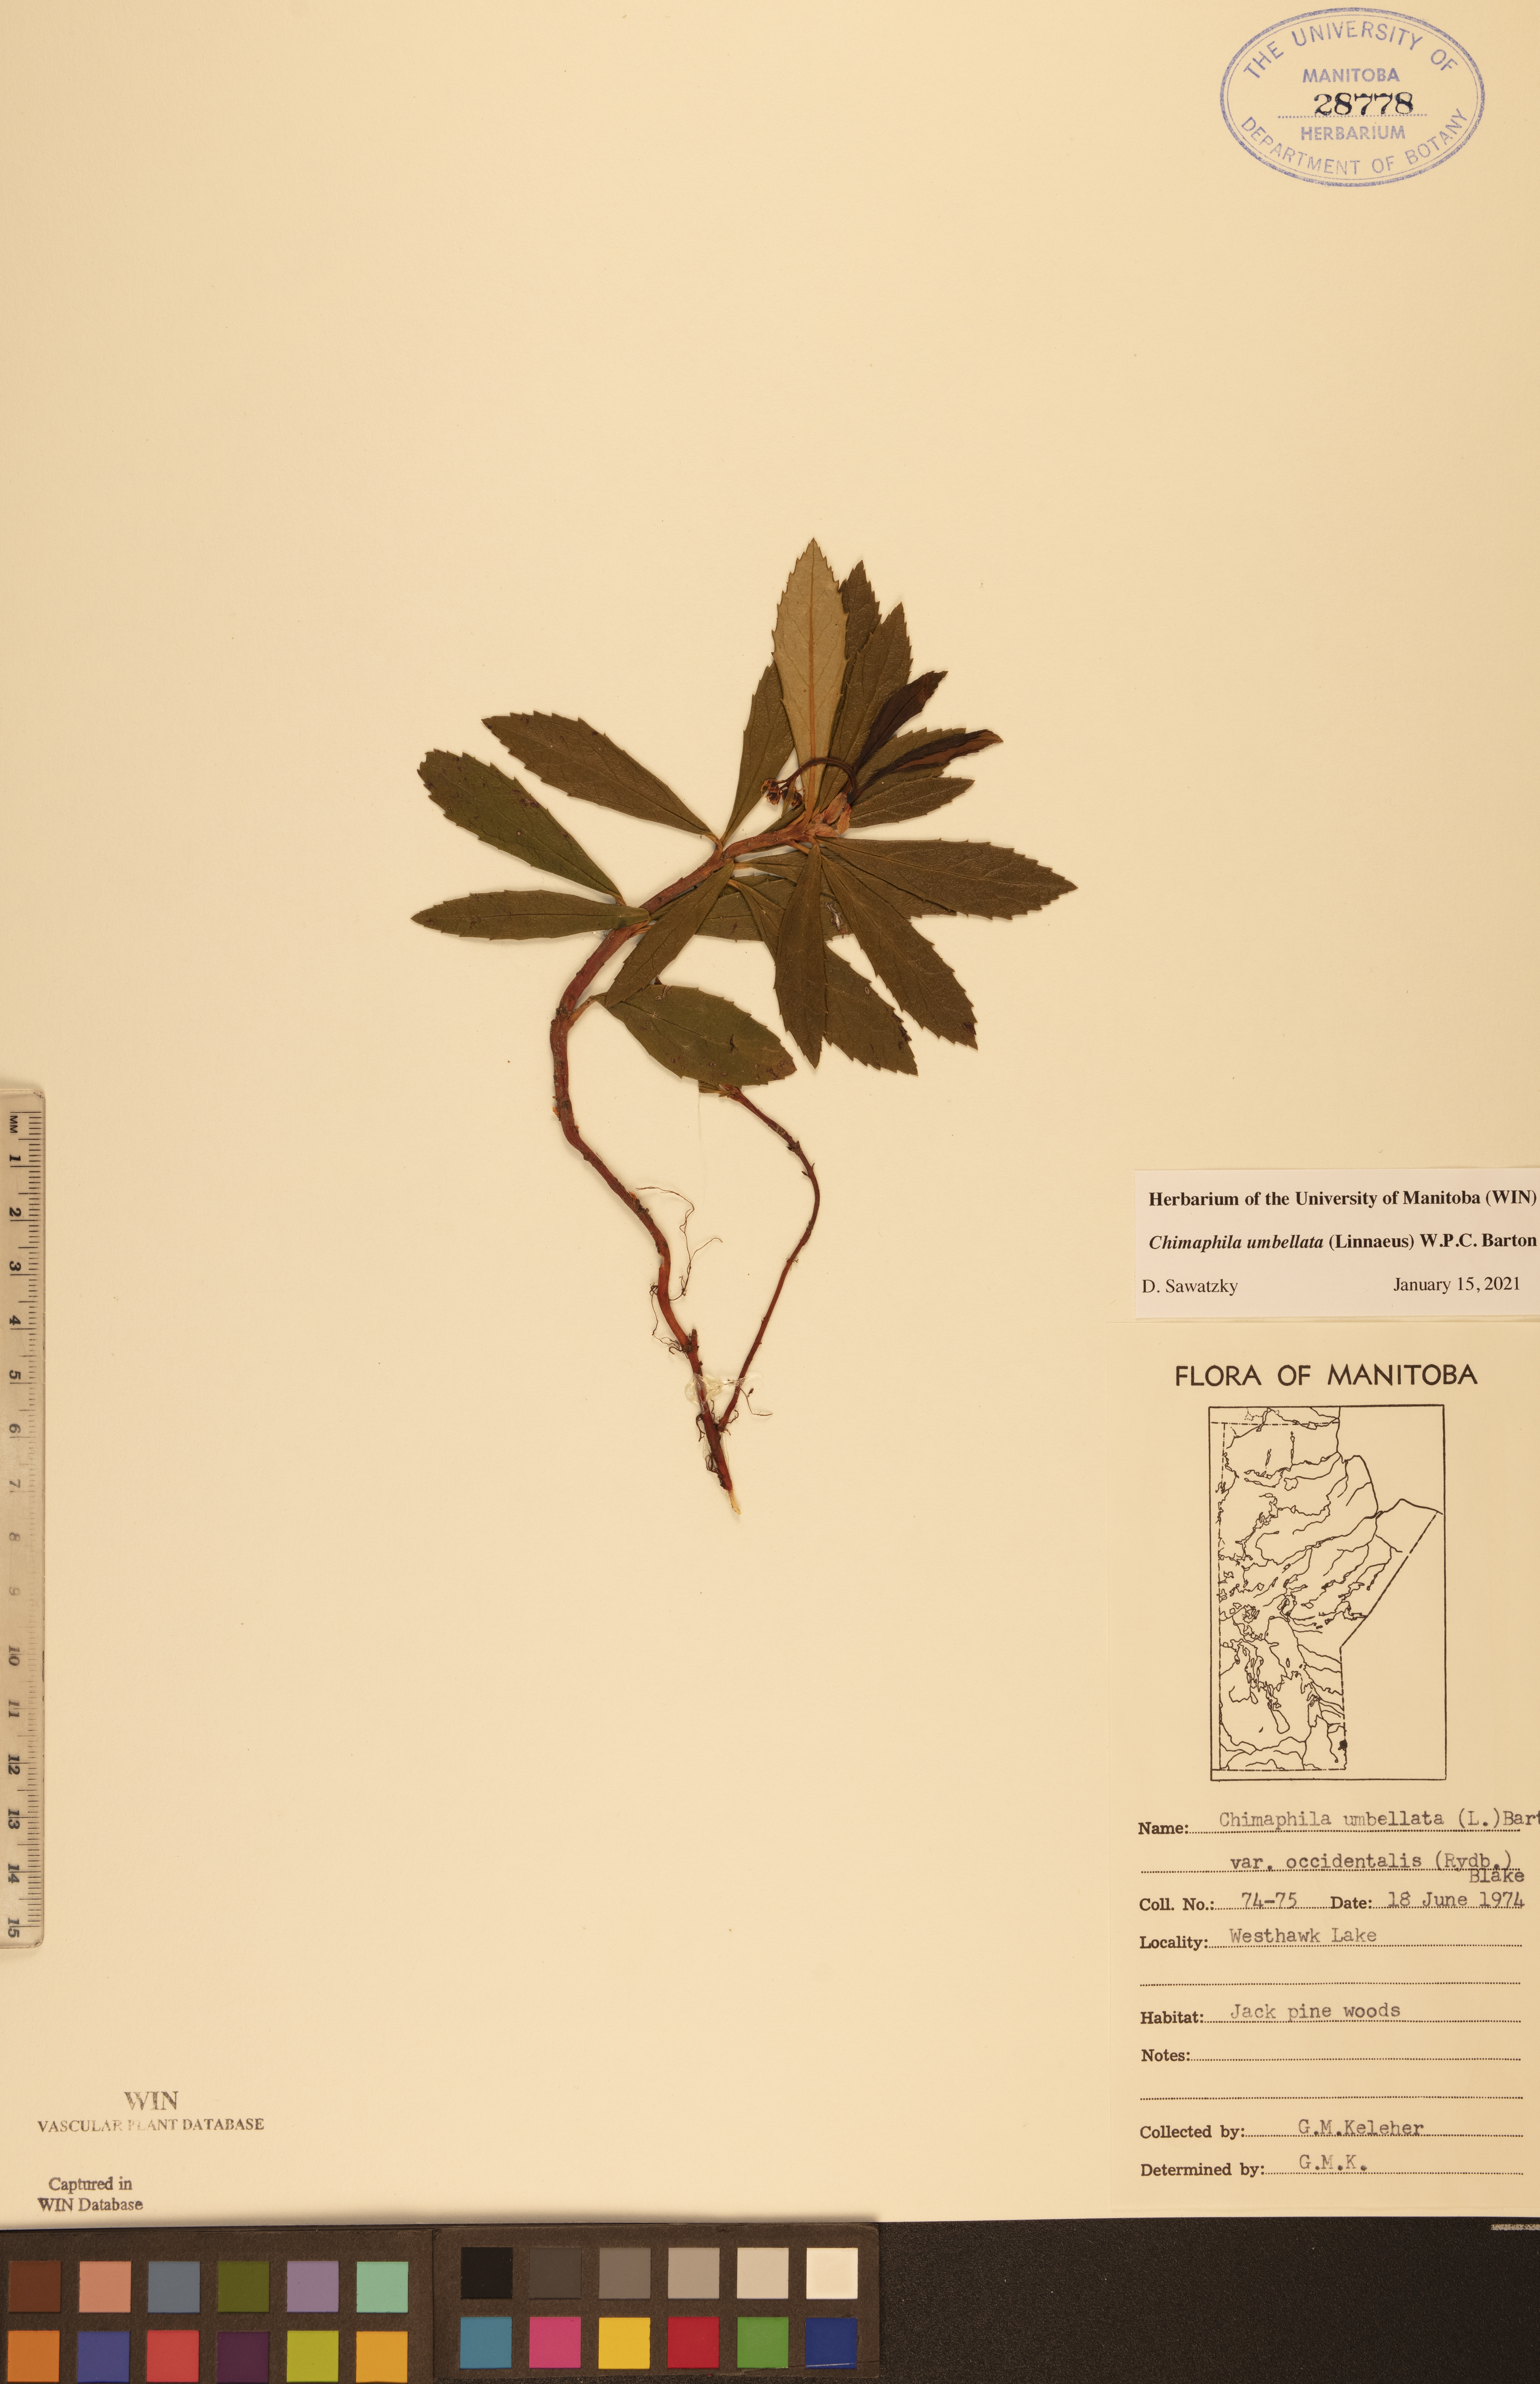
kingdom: Plantae
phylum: Tracheophyta
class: Magnoliopsida
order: Ericales
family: Ericaceae
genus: Chimaphila
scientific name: Chimaphila umbellata
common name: Pipsissewa
